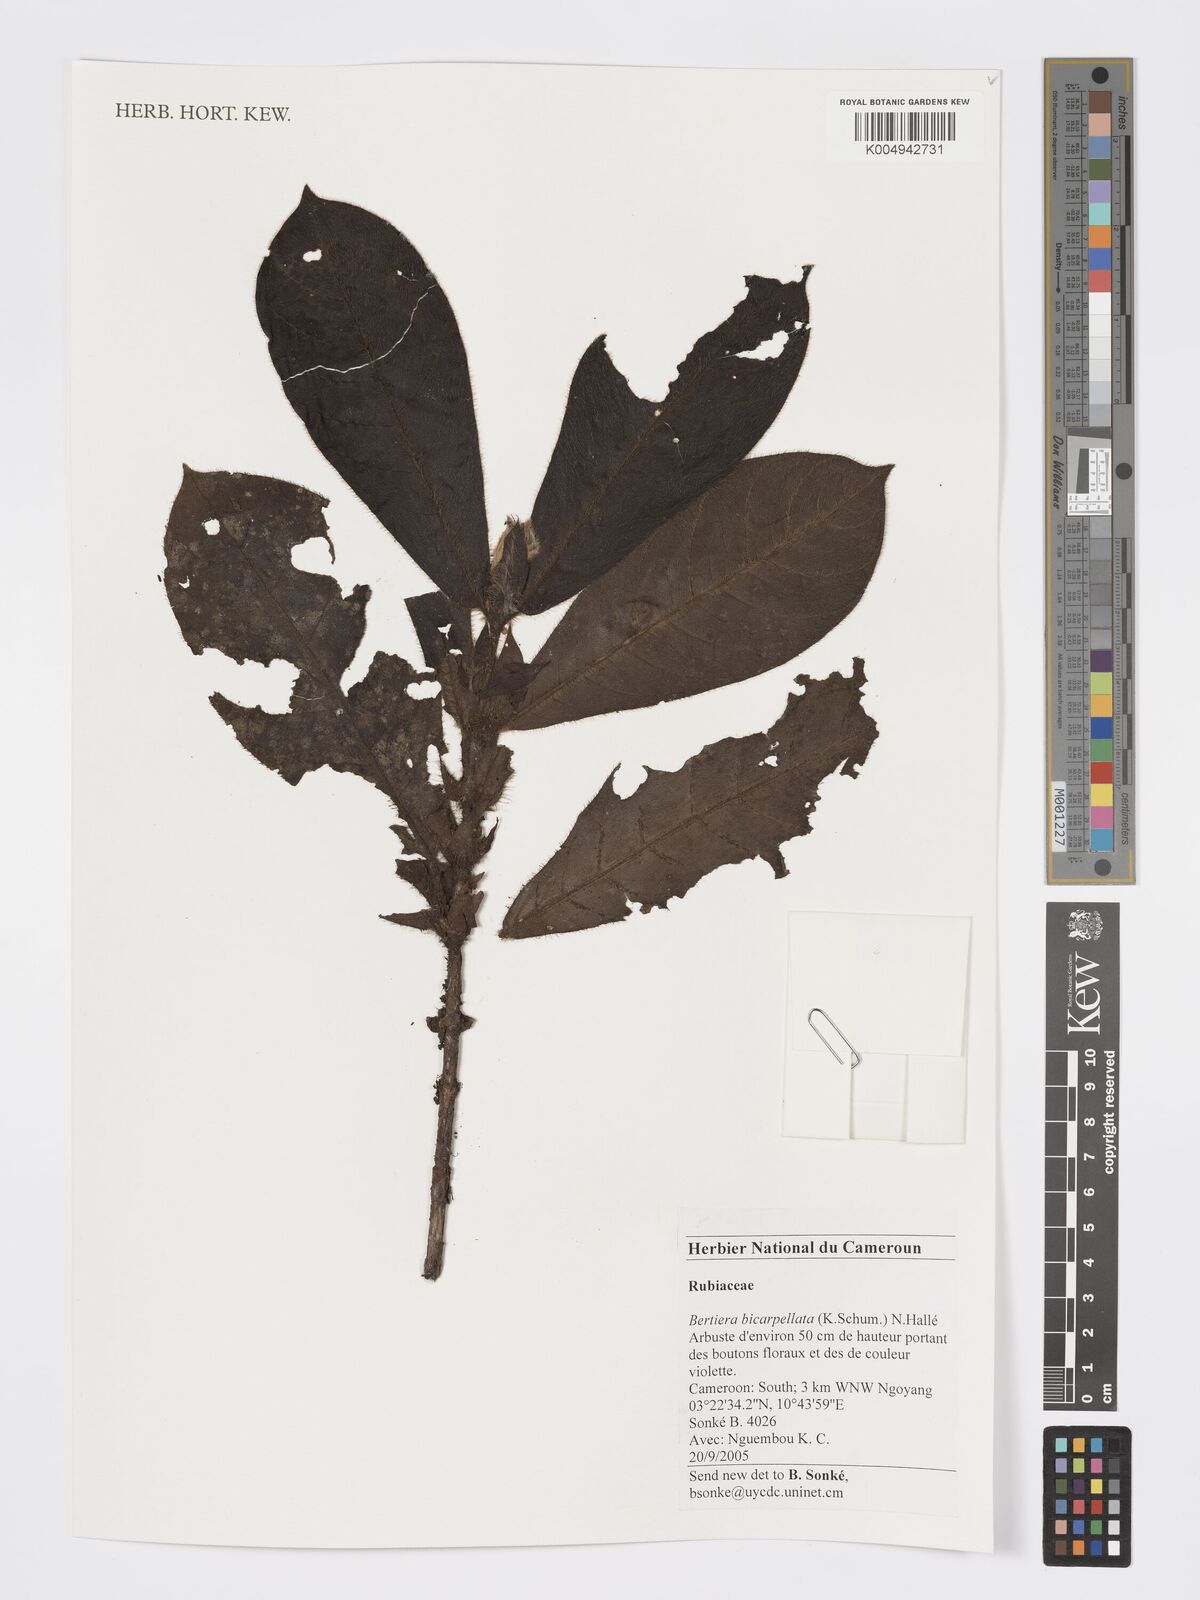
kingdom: Plantae
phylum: Tracheophyta
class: Magnoliopsida
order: Gentianales
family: Rubiaceae
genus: Bertiera
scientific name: Bertiera bicarpellata
